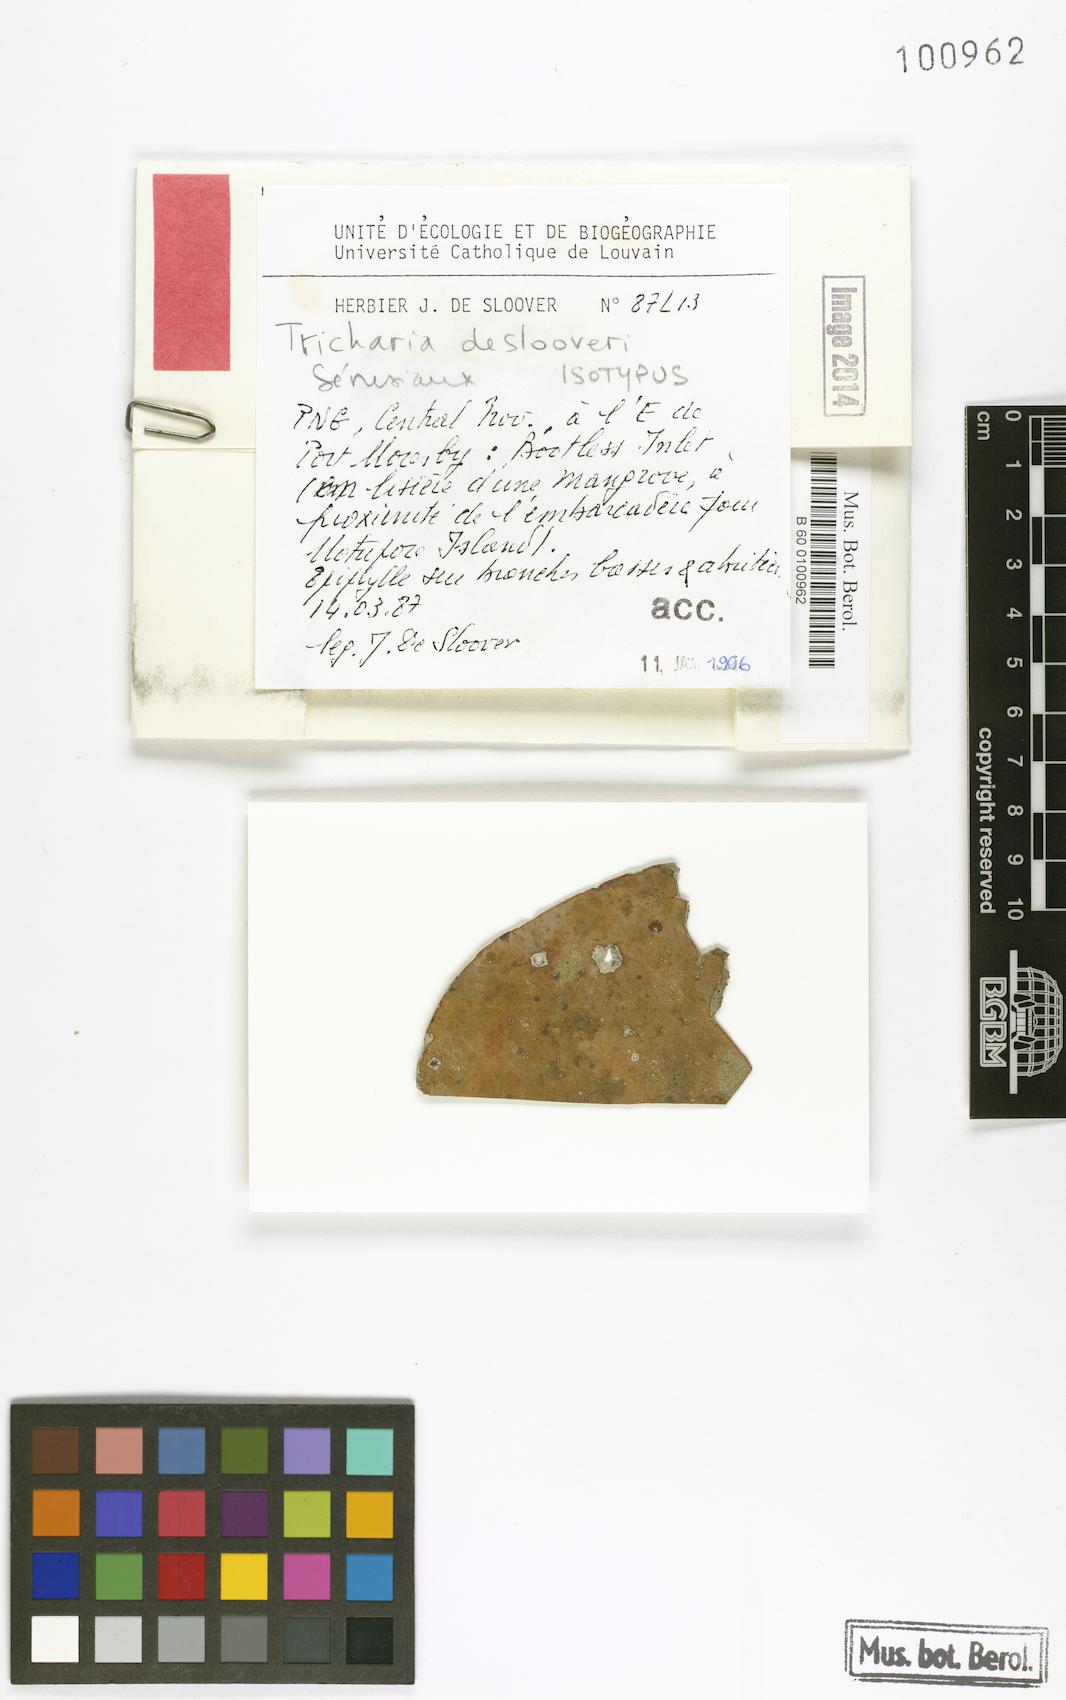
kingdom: Fungi
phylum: Ascomycota
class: Lecanoromycetes
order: Ostropales
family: Gomphillaceae
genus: Aderkomyces
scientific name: Aderkomyces deslooveri
